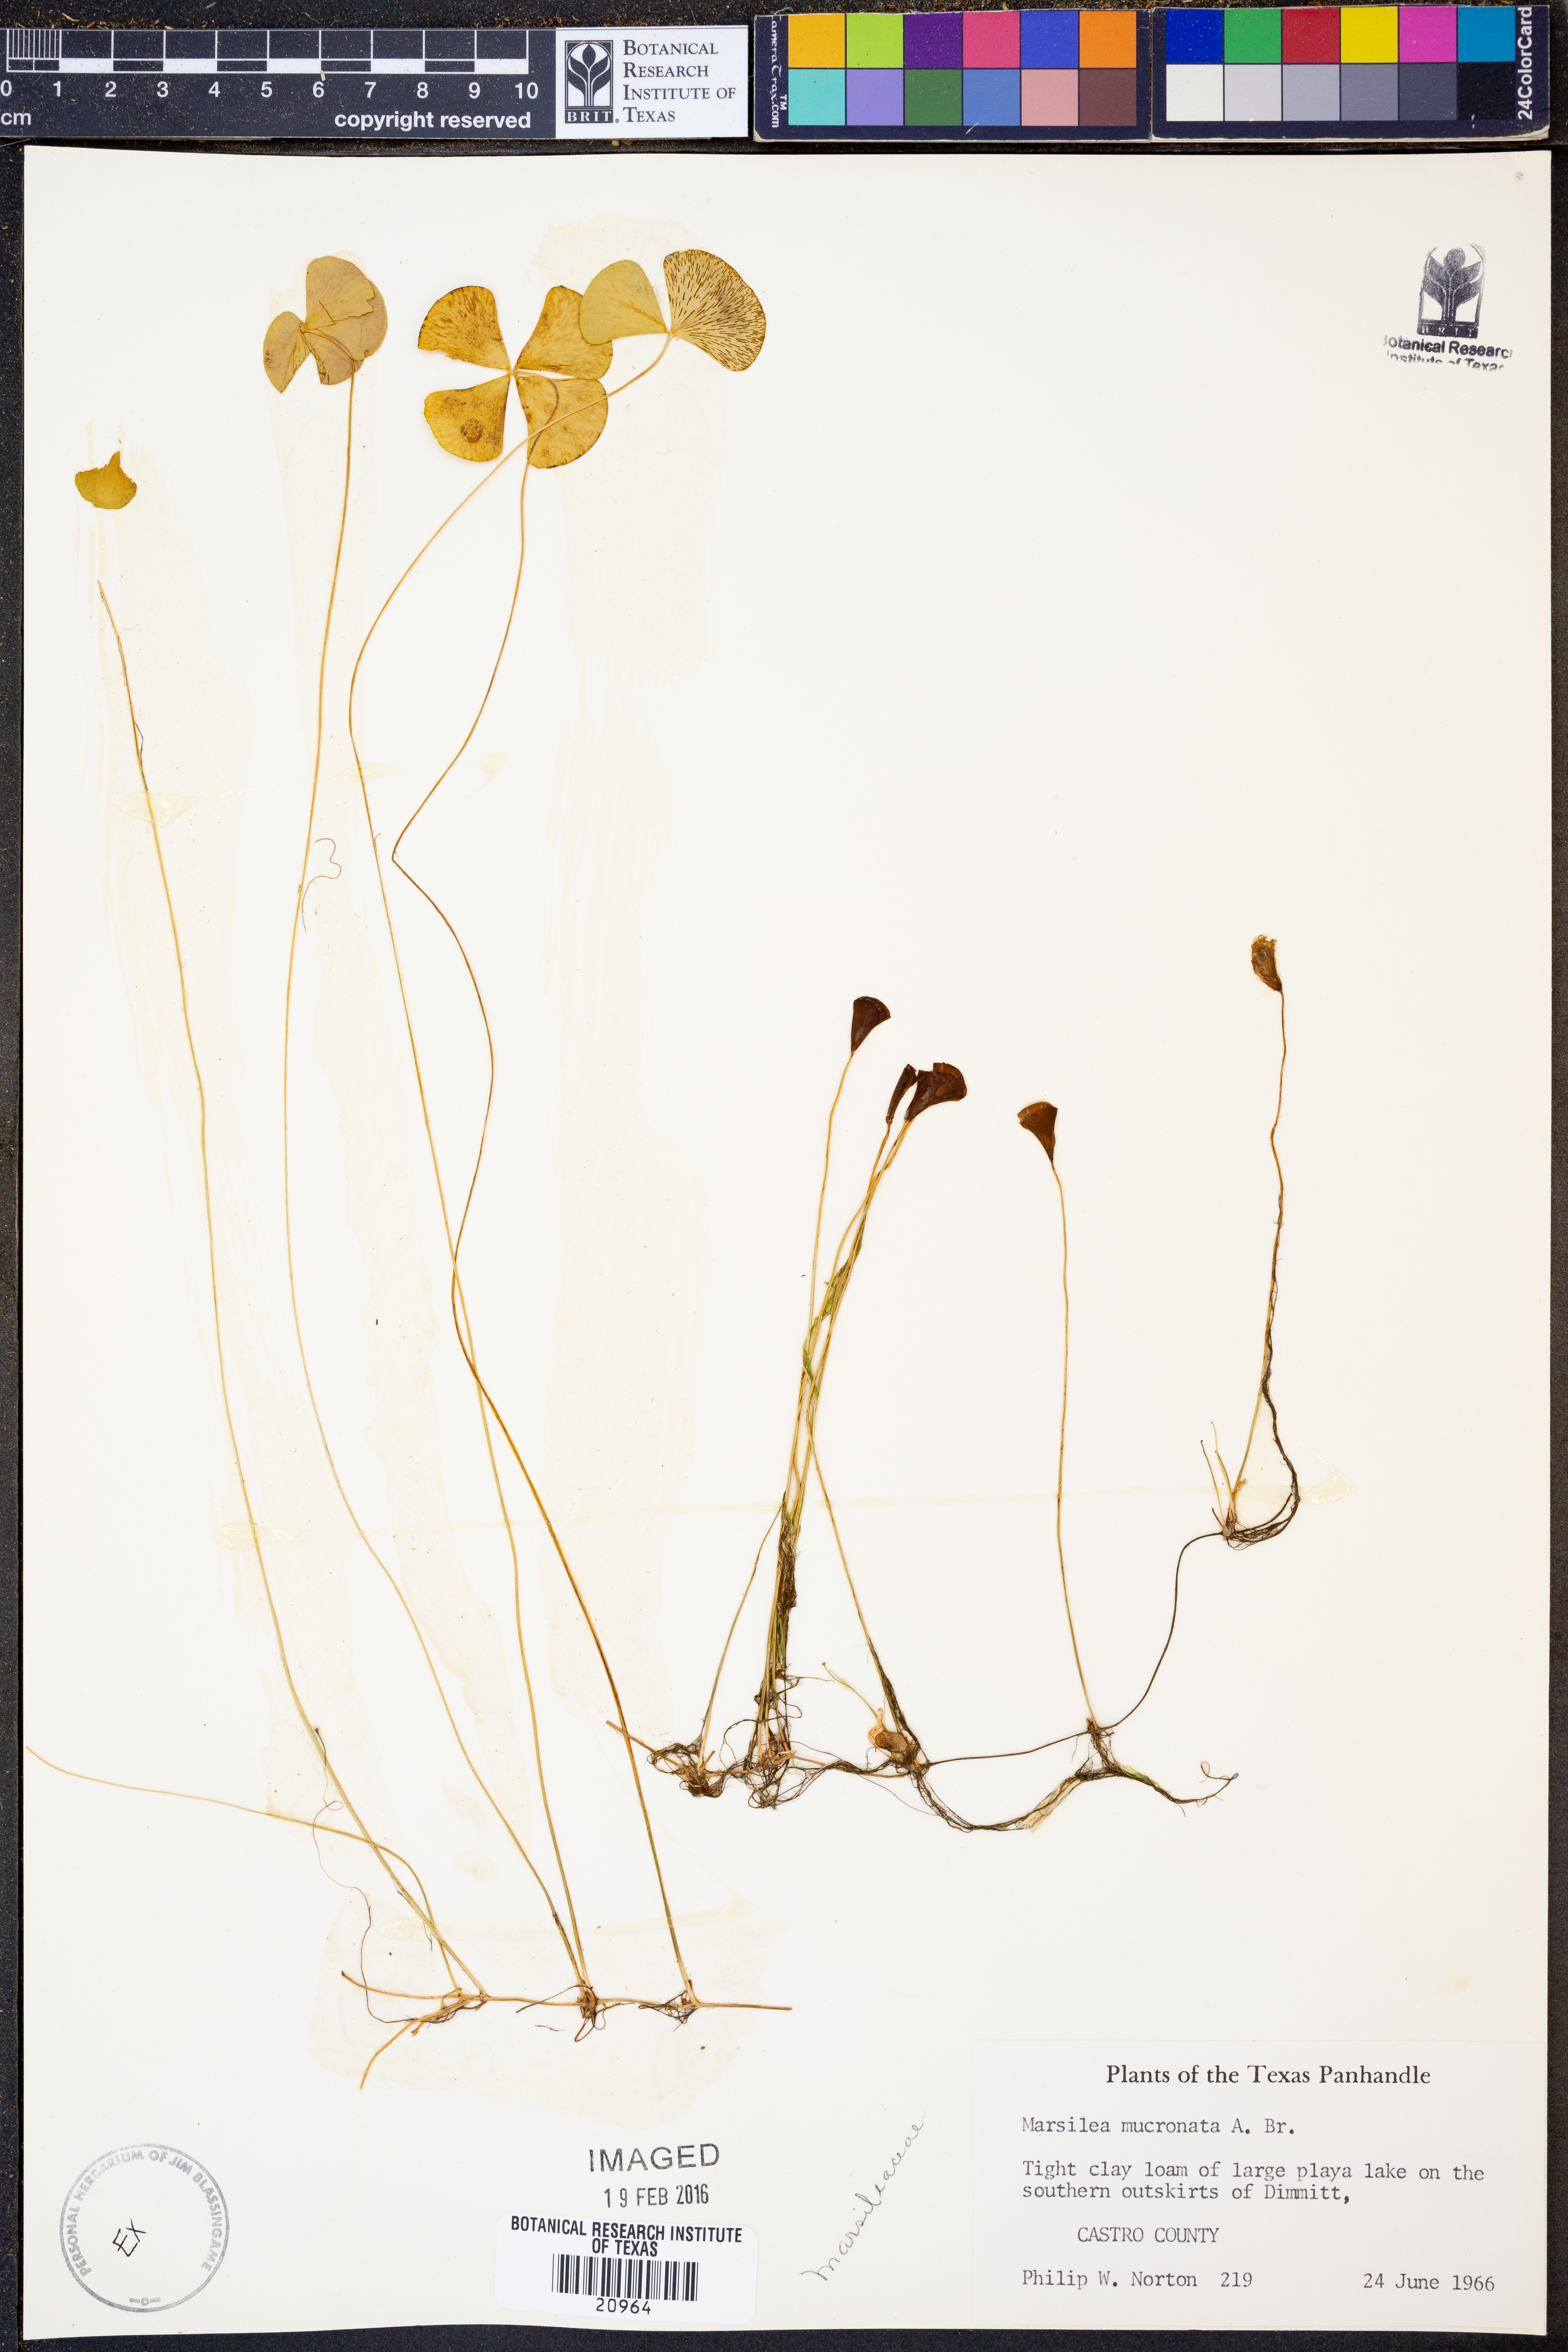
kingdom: Plantae
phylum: Tracheophyta
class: Polypodiopsida
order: Salviniales
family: Marsileaceae
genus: Marsilea
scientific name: Marsilea vestita
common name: Hooked-pepperwort
